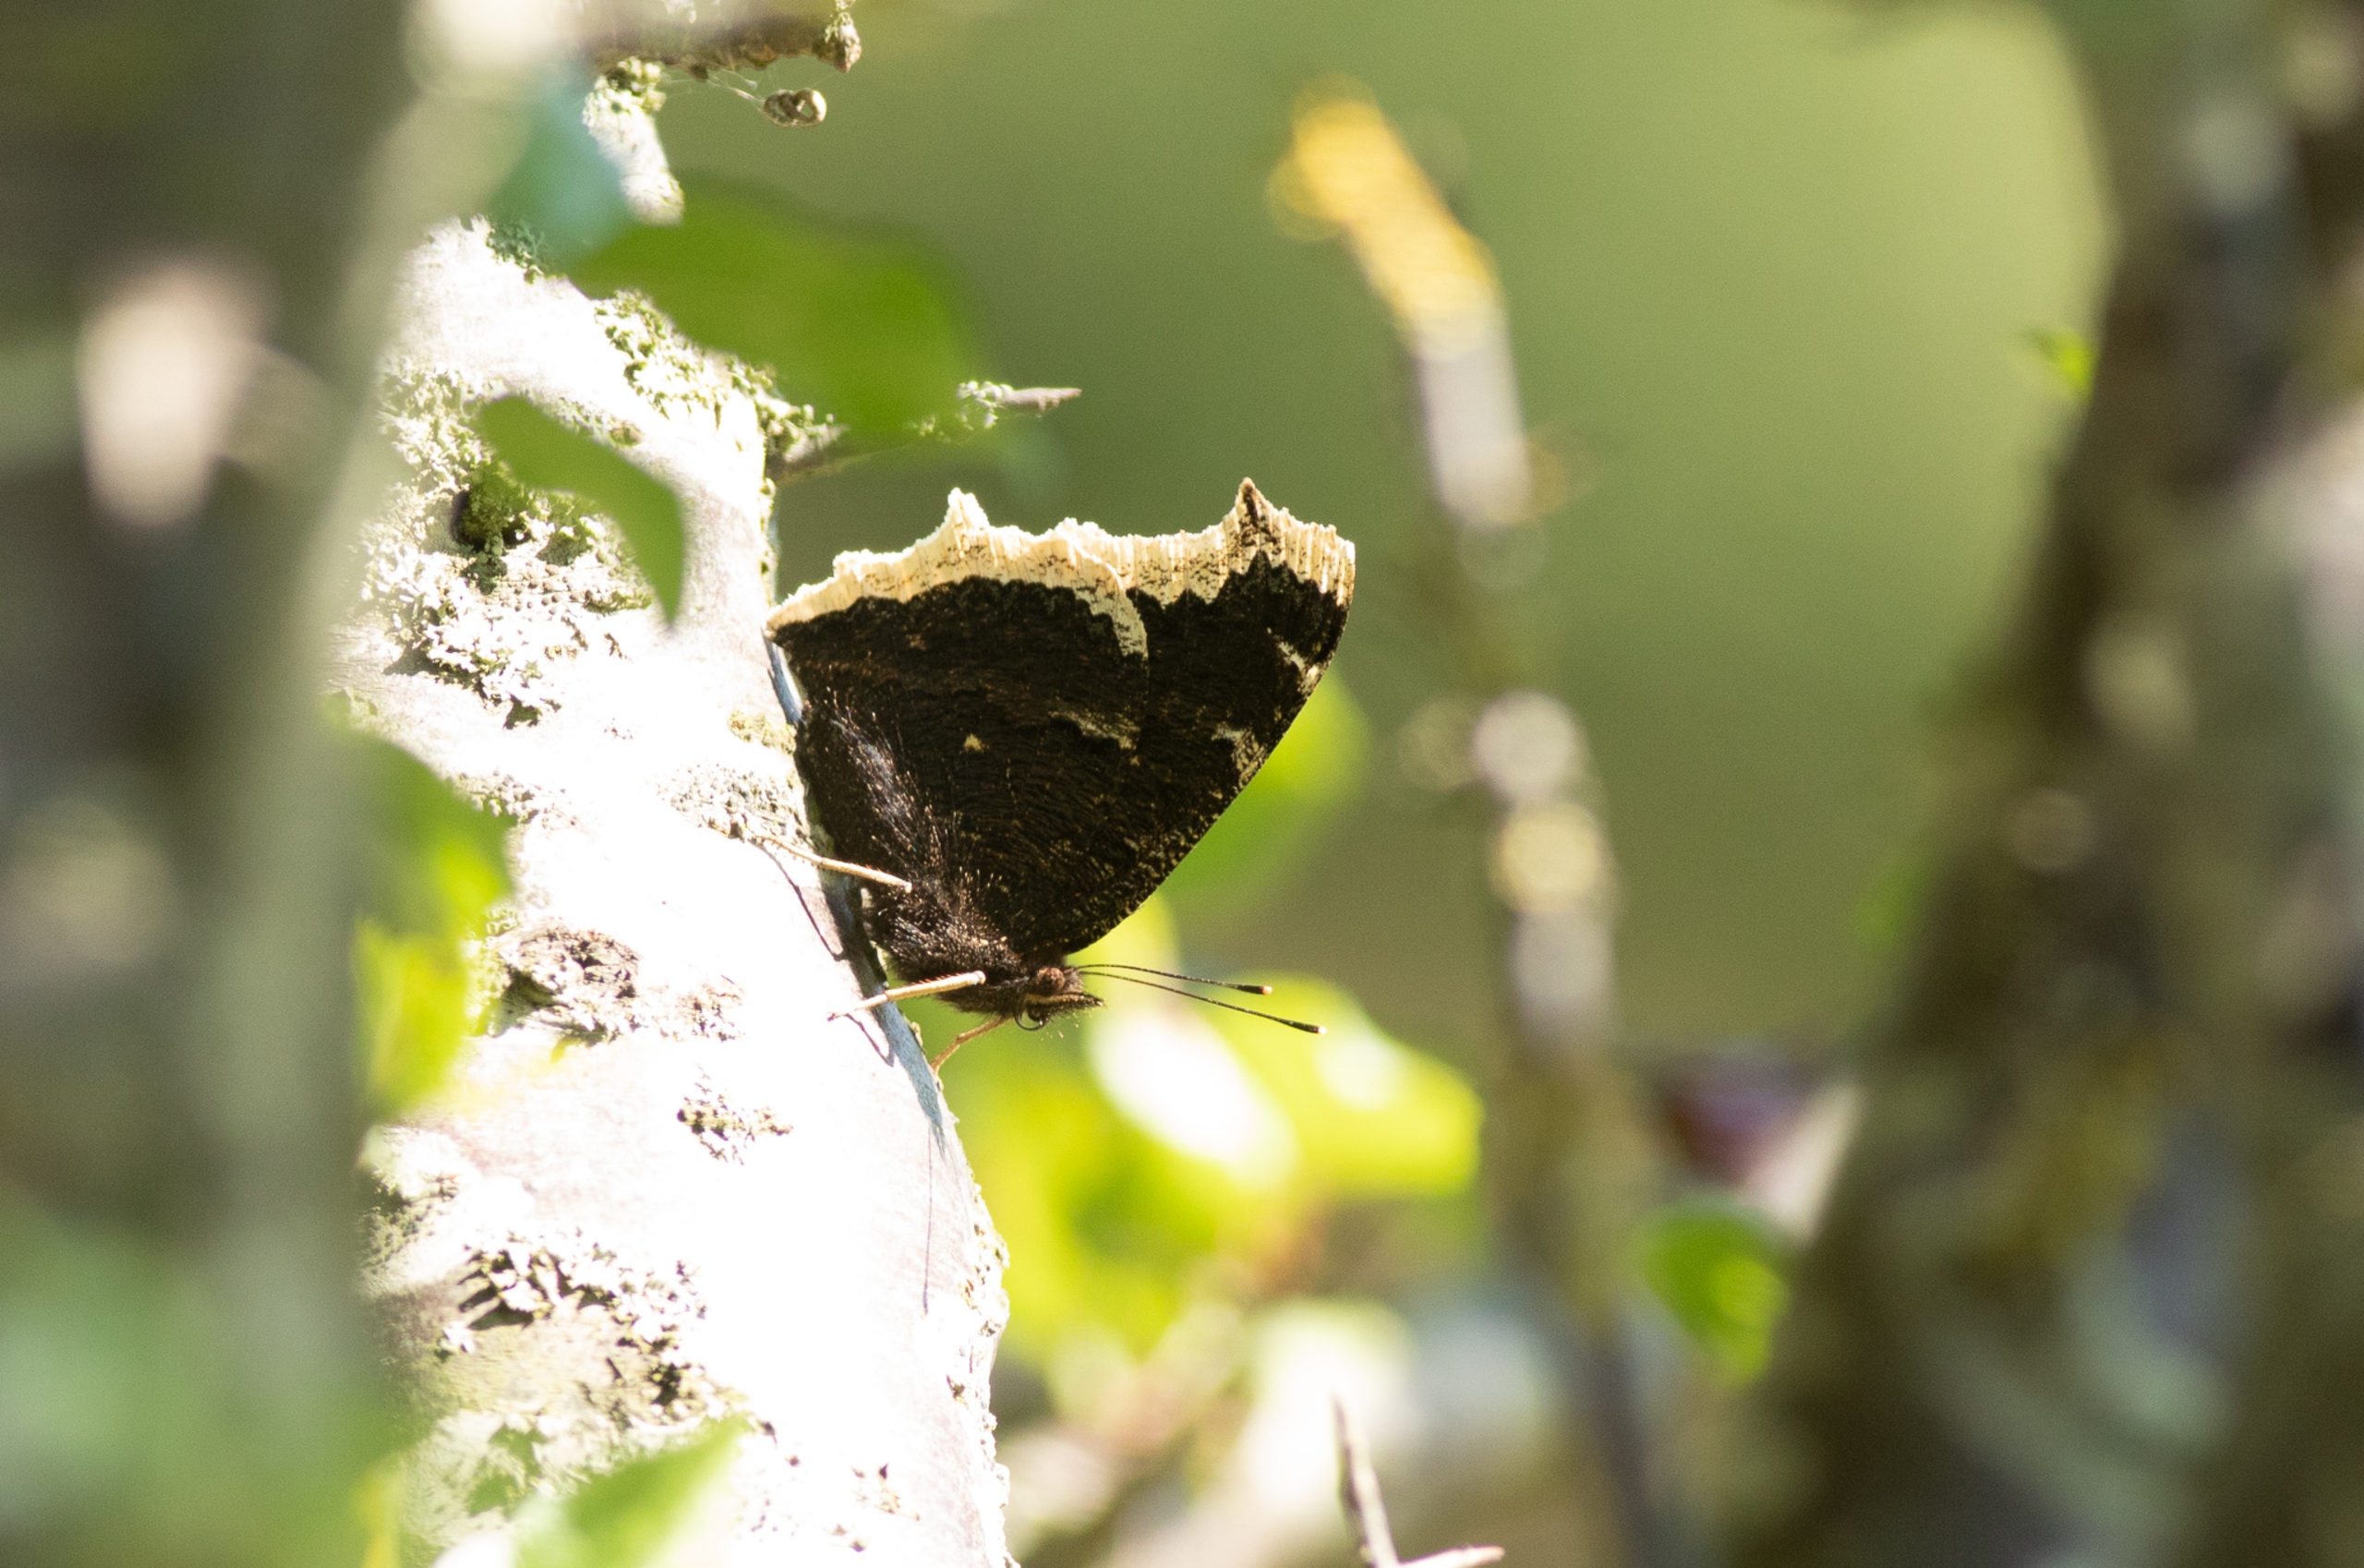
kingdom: Animalia
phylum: Arthropoda
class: Insecta
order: Lepidoptera
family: Nymphalidae
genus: Nymphalis
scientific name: Nymphalis antiopa
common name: Sørgekåbe
